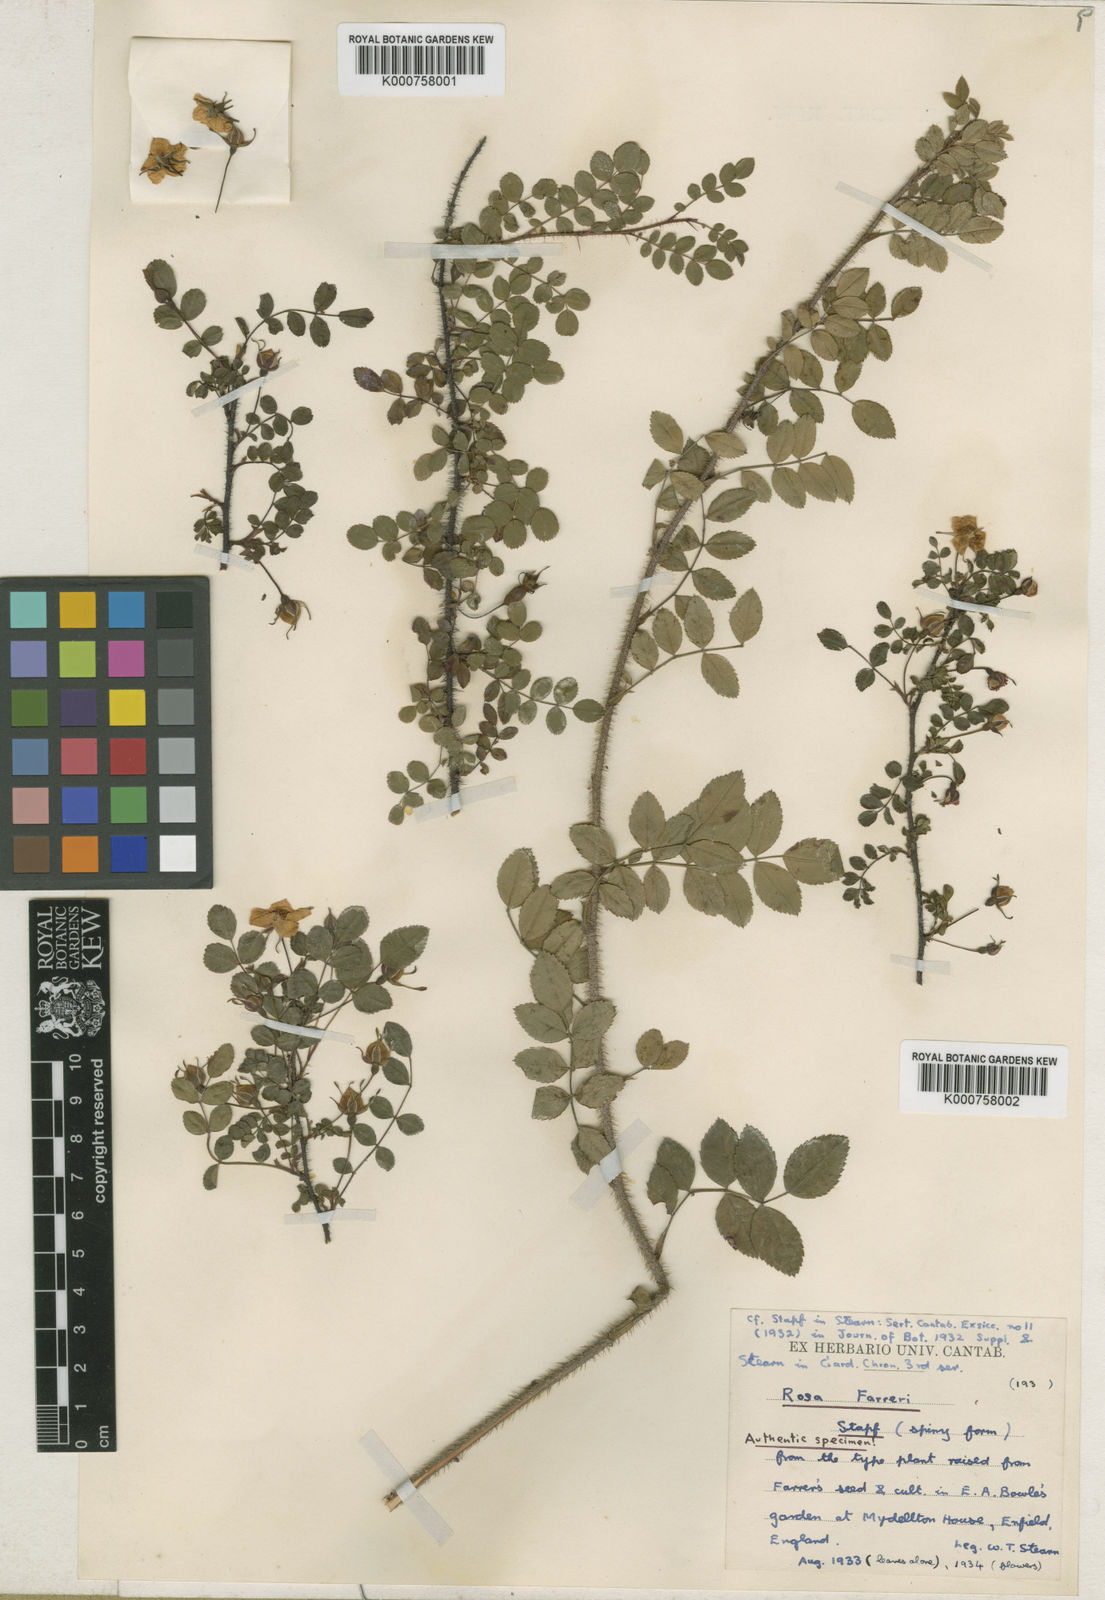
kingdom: Plantae
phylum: Tracheophyta
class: Magnoliopsida
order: Rosales
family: Rosaceae
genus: Rosa
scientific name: Rosa farreri
